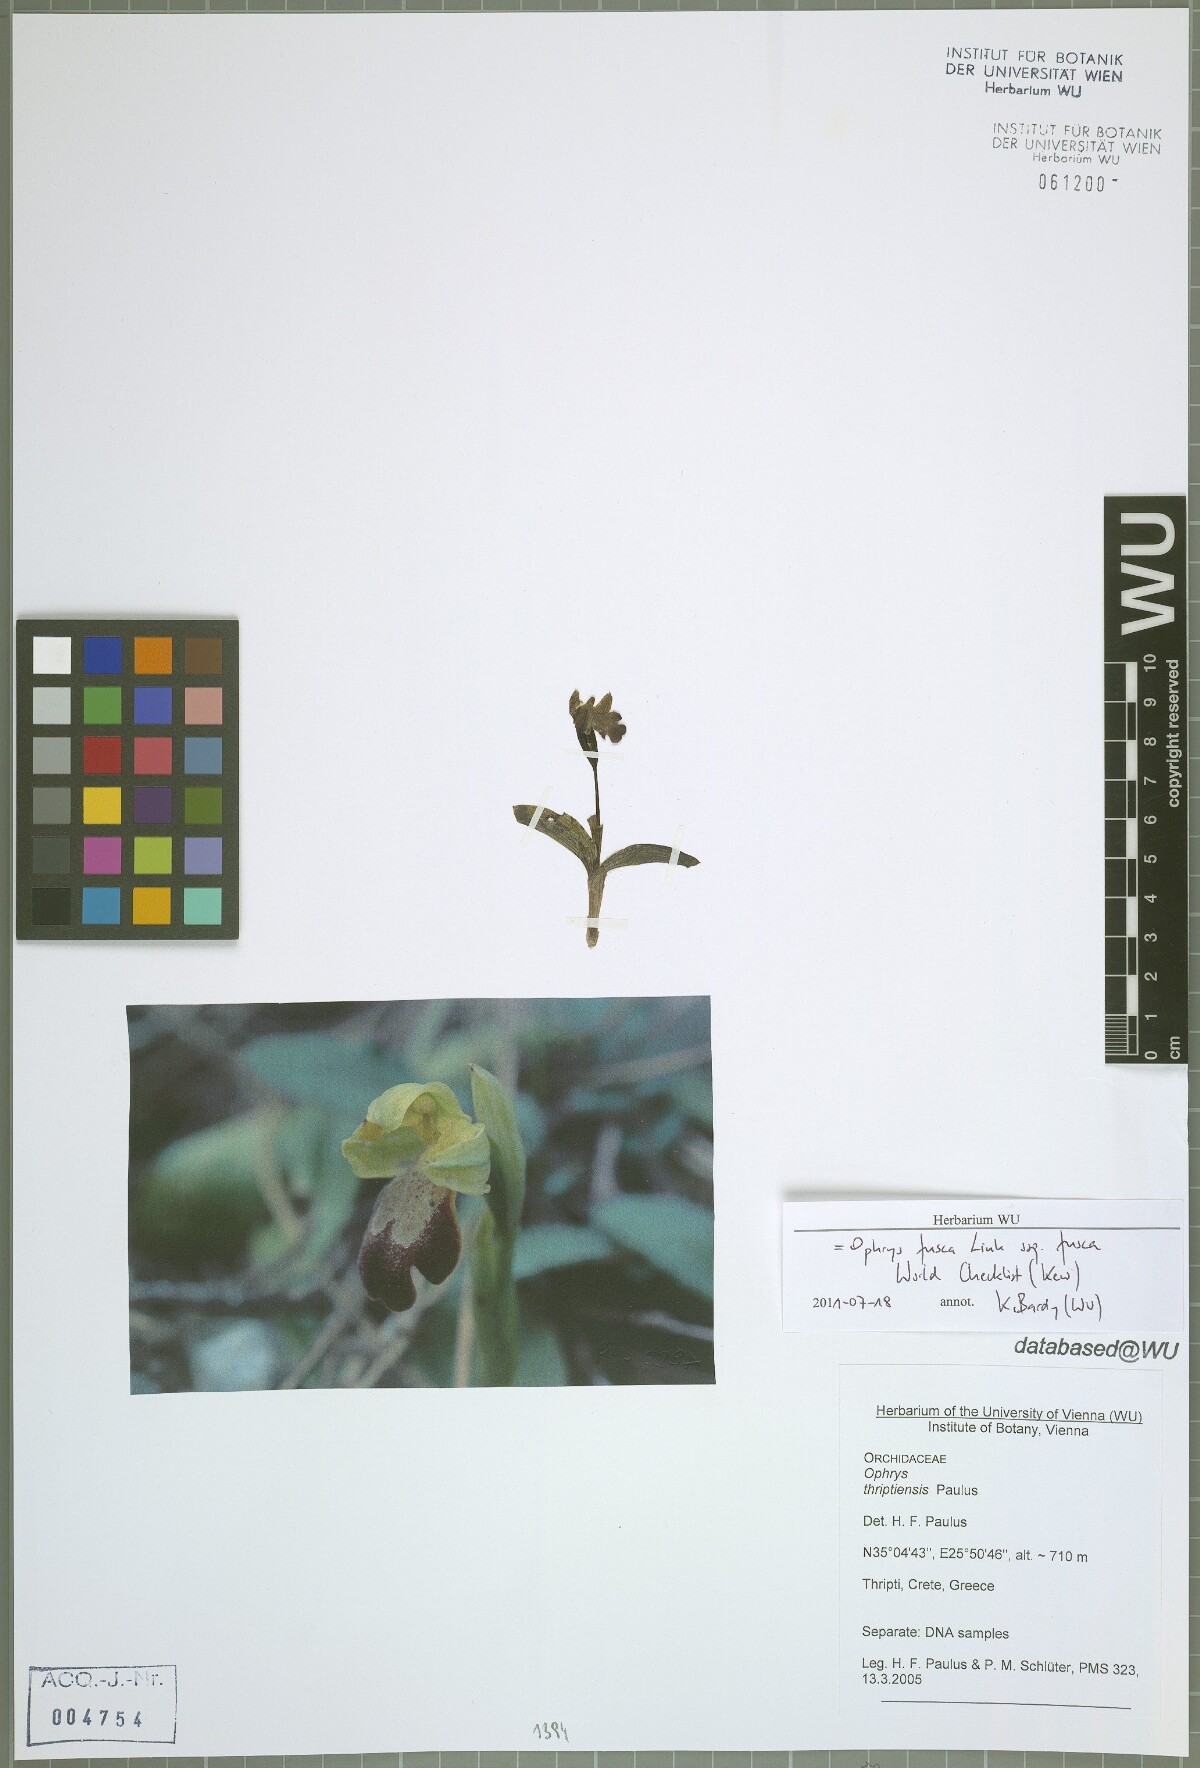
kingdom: Plantae
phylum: Tracheophyta
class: Liliopsida
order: Asparagales
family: Orchidaceae
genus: Ophrys
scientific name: Ophrys fusca
